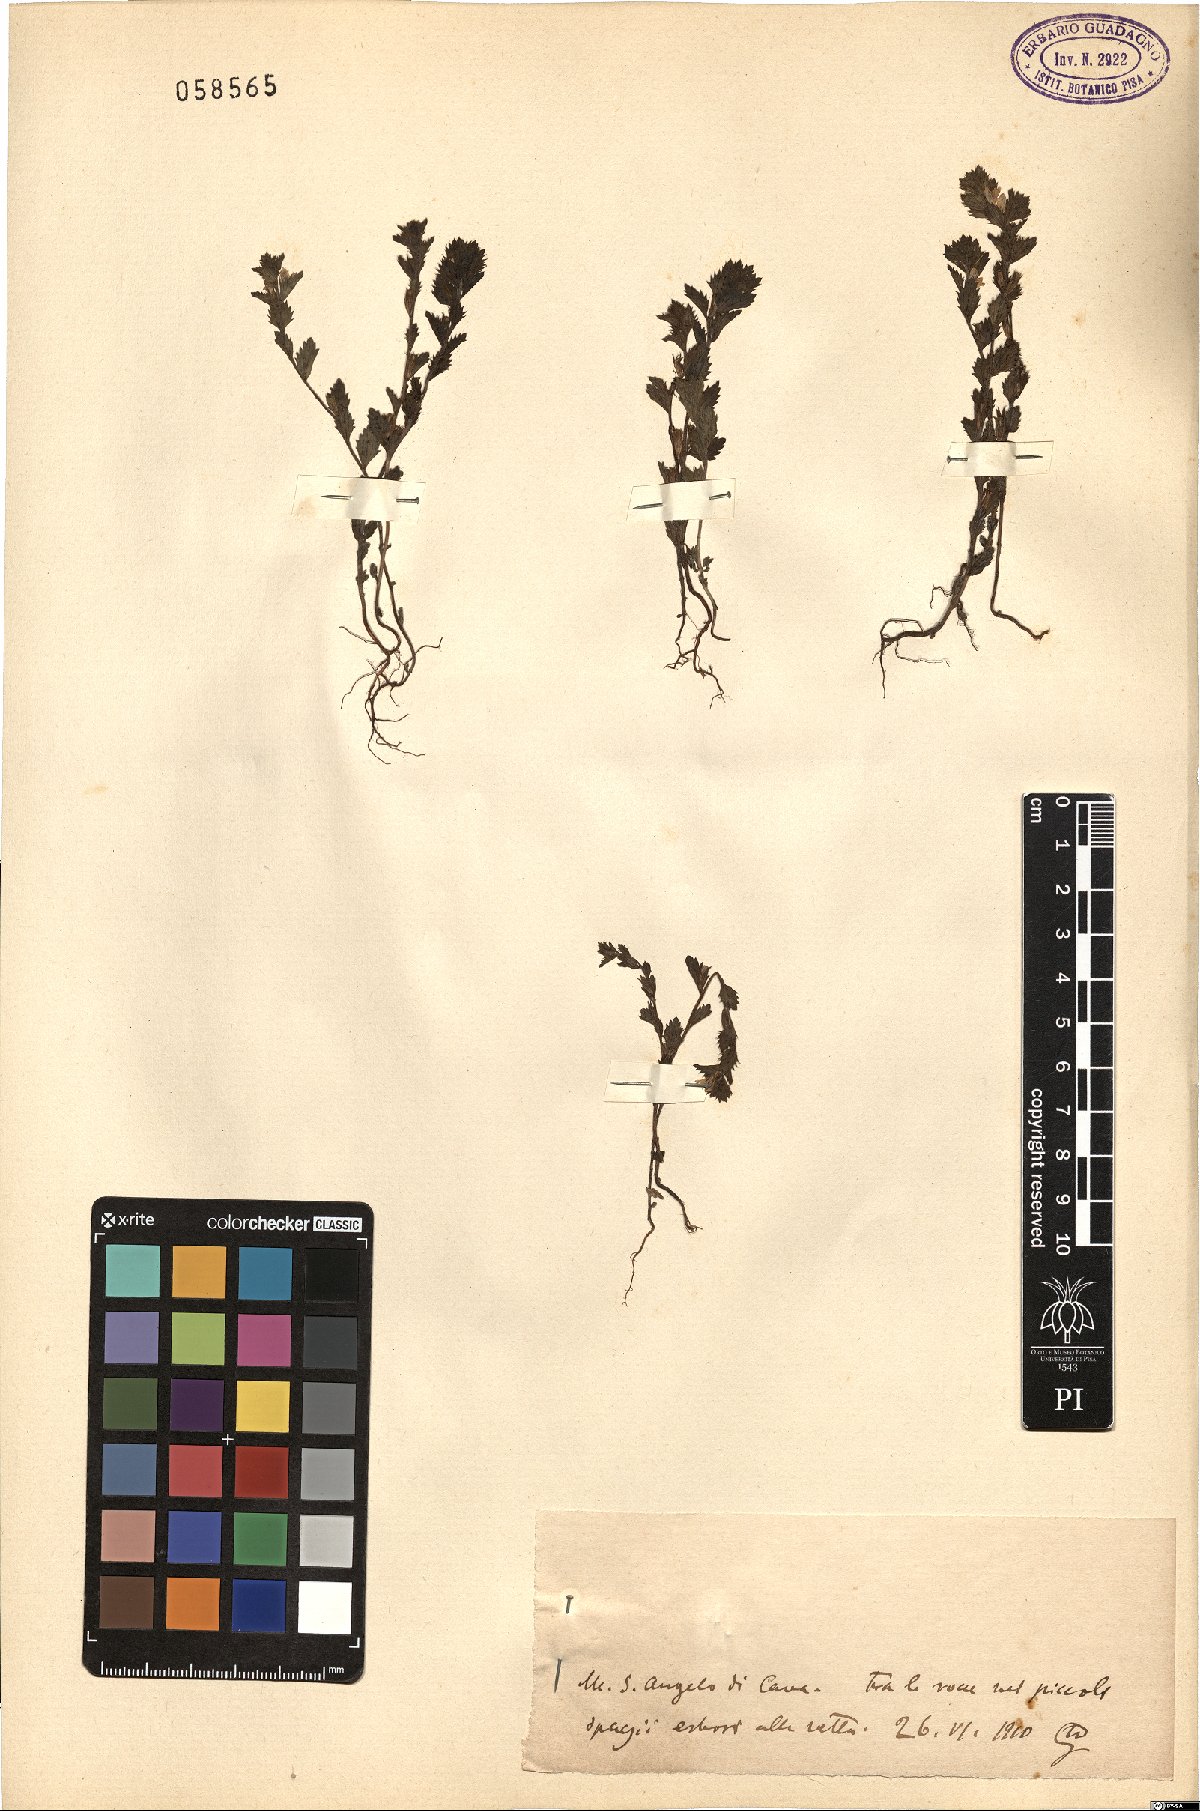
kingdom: Plantae
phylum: Tracheophyta
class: Magnoliopsida
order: Lamiales
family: Orobanchaceae
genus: Euphrasia
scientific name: Euphrasia
